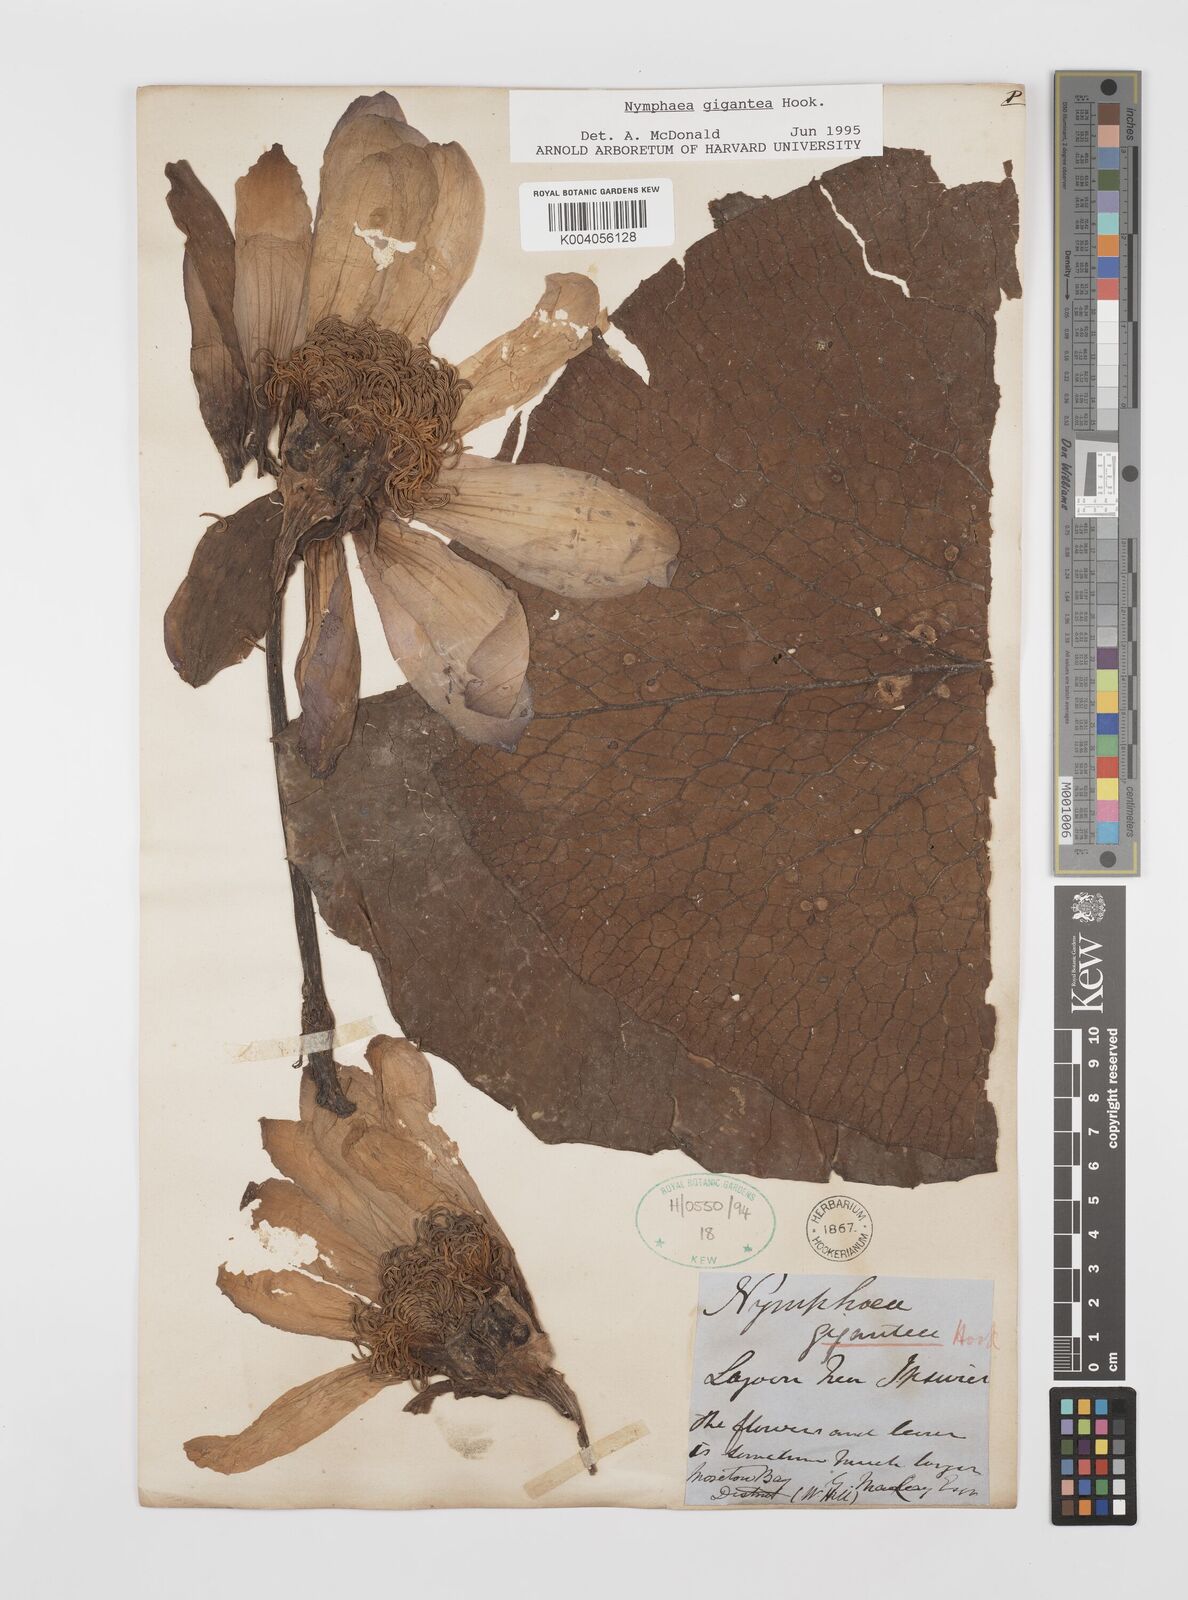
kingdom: Plantae
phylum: Tracheophyta
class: Magnoliopsida
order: Nymphaeales
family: Nymphaeaceae
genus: Nymphaea
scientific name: Nymphaea gigantea
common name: Giant water-lily
